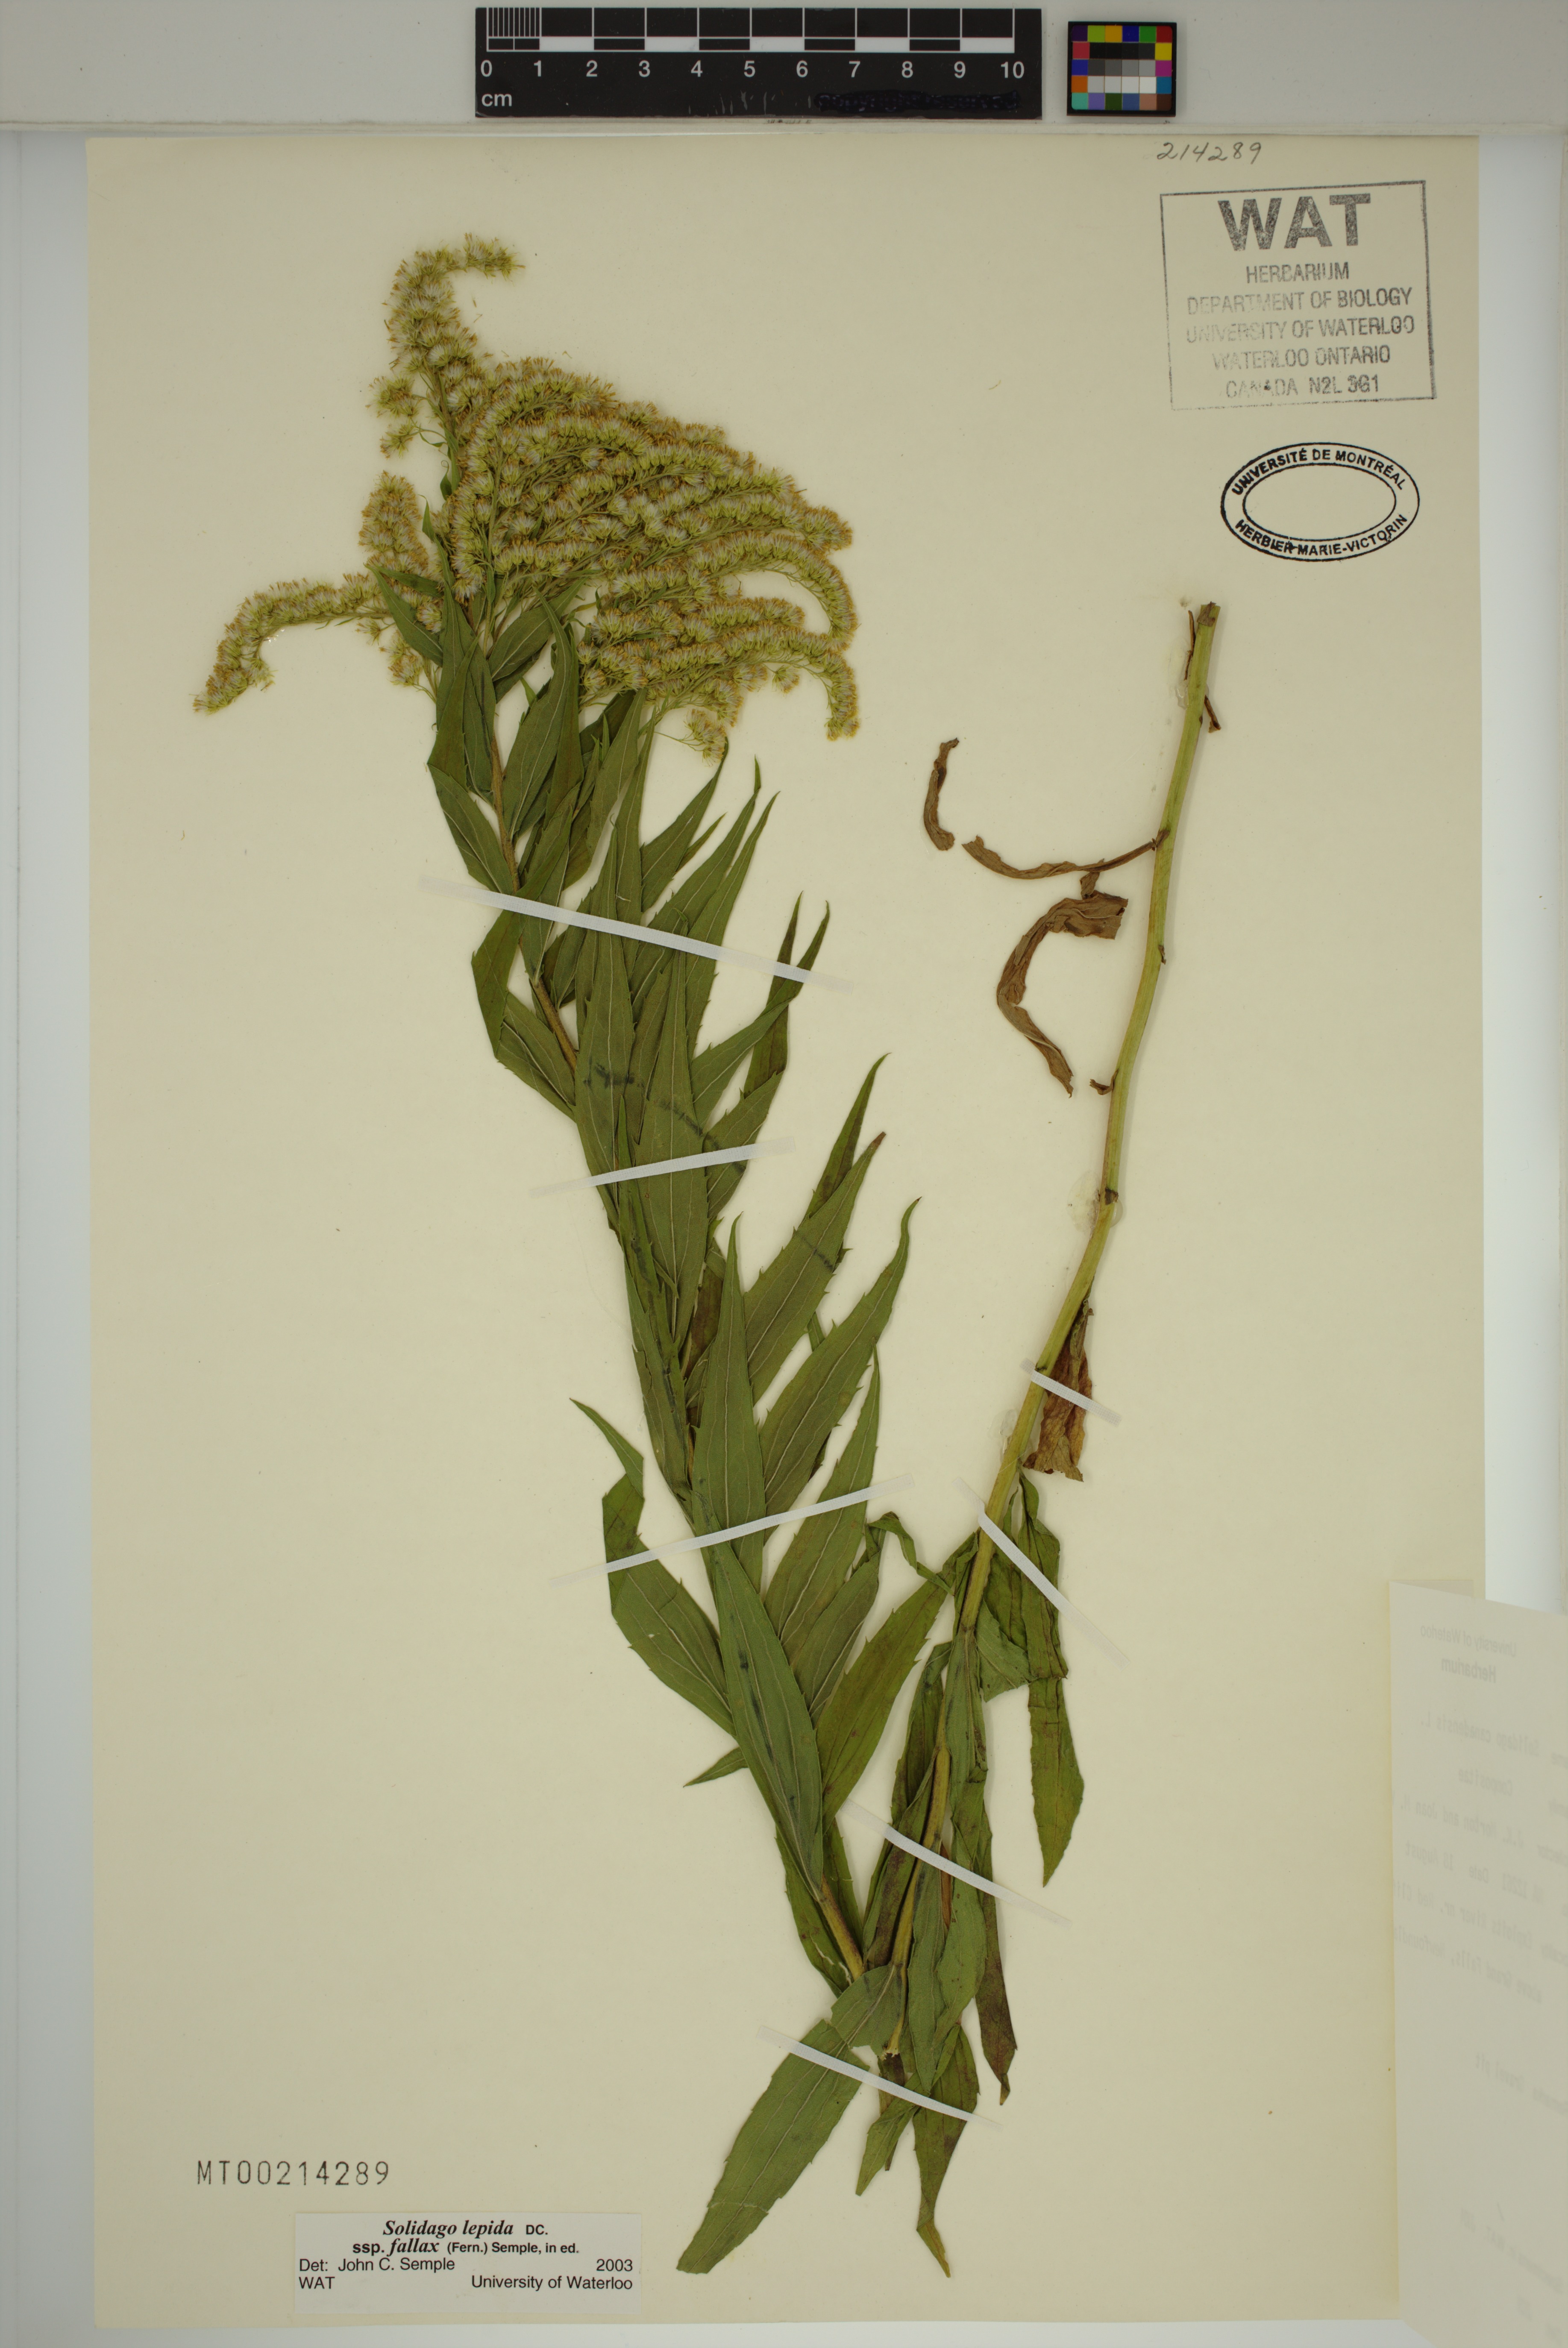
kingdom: Plantae
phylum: Tracheophyta
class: Magnoliopsida
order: Asterales
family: Asteraceae
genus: Solidago
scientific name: Solidago fallax
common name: Big-toothed canada goldenrod
